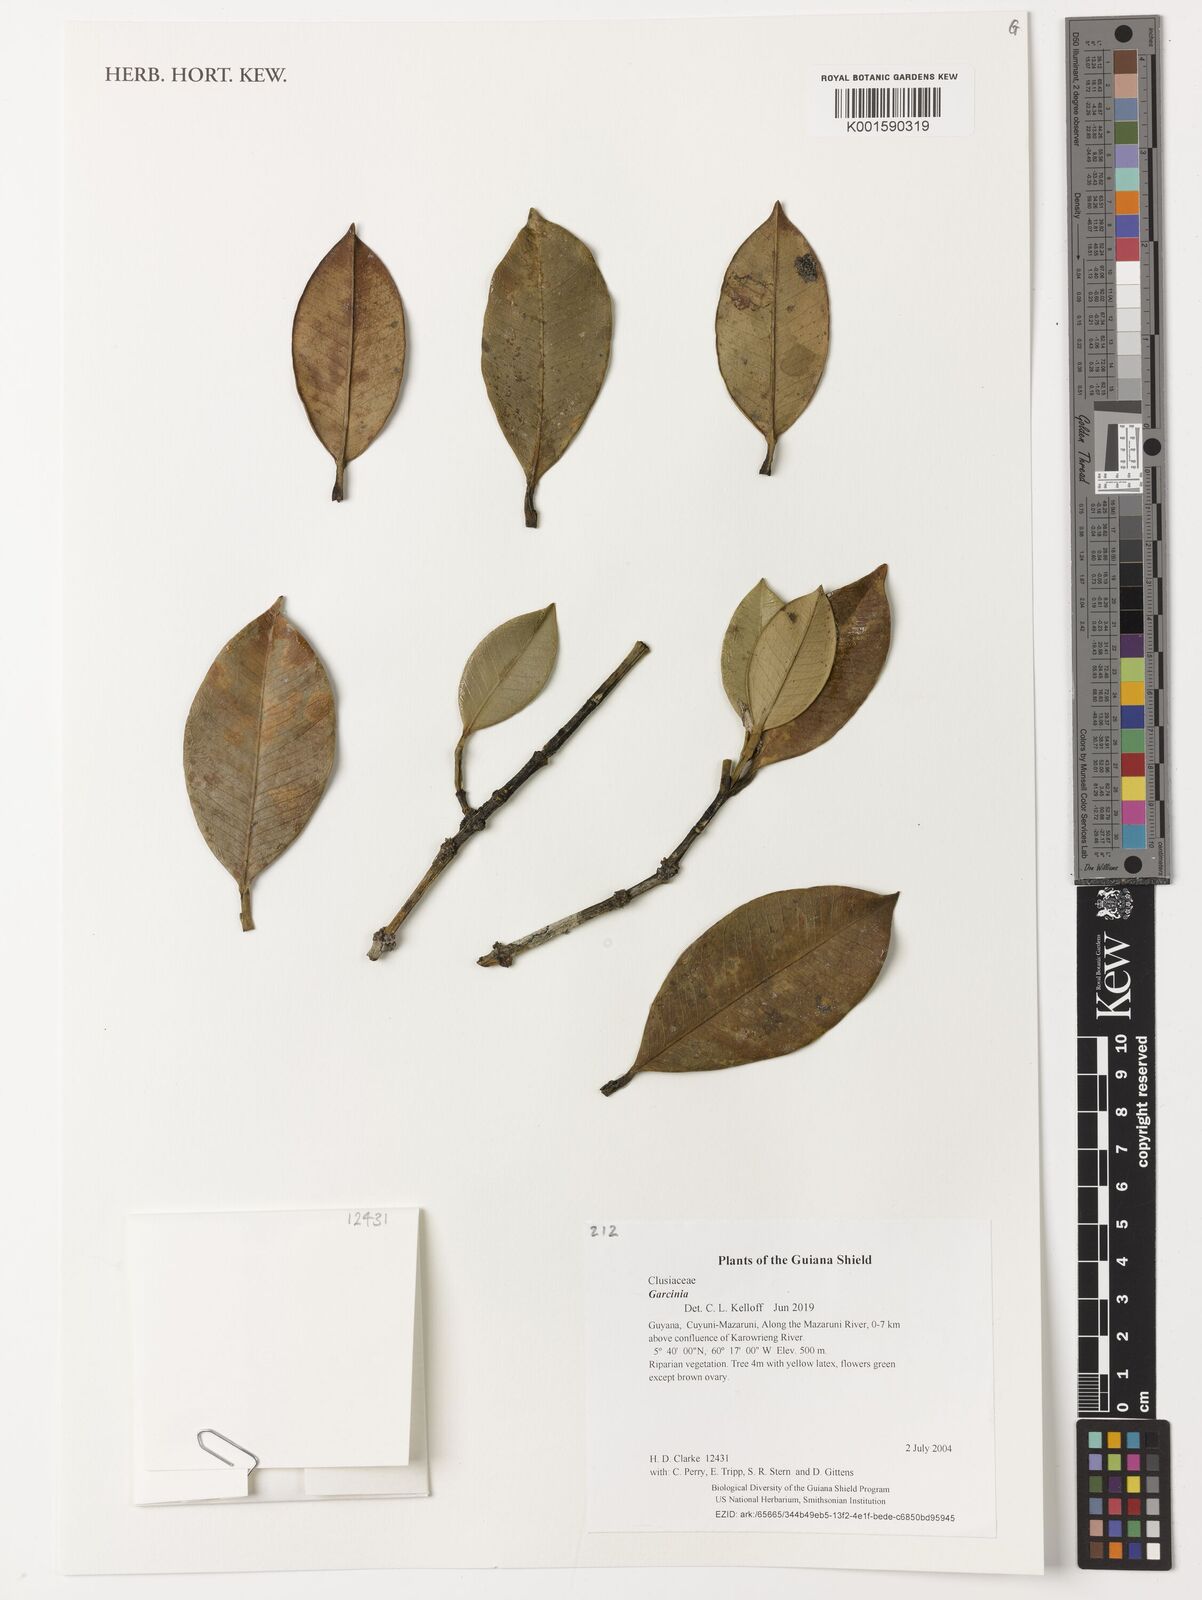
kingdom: Plantae
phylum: Tracheophyta
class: Magnoliopsida
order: Malpighiales
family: Clusiaceae
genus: Garcinia
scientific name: Garcinia
